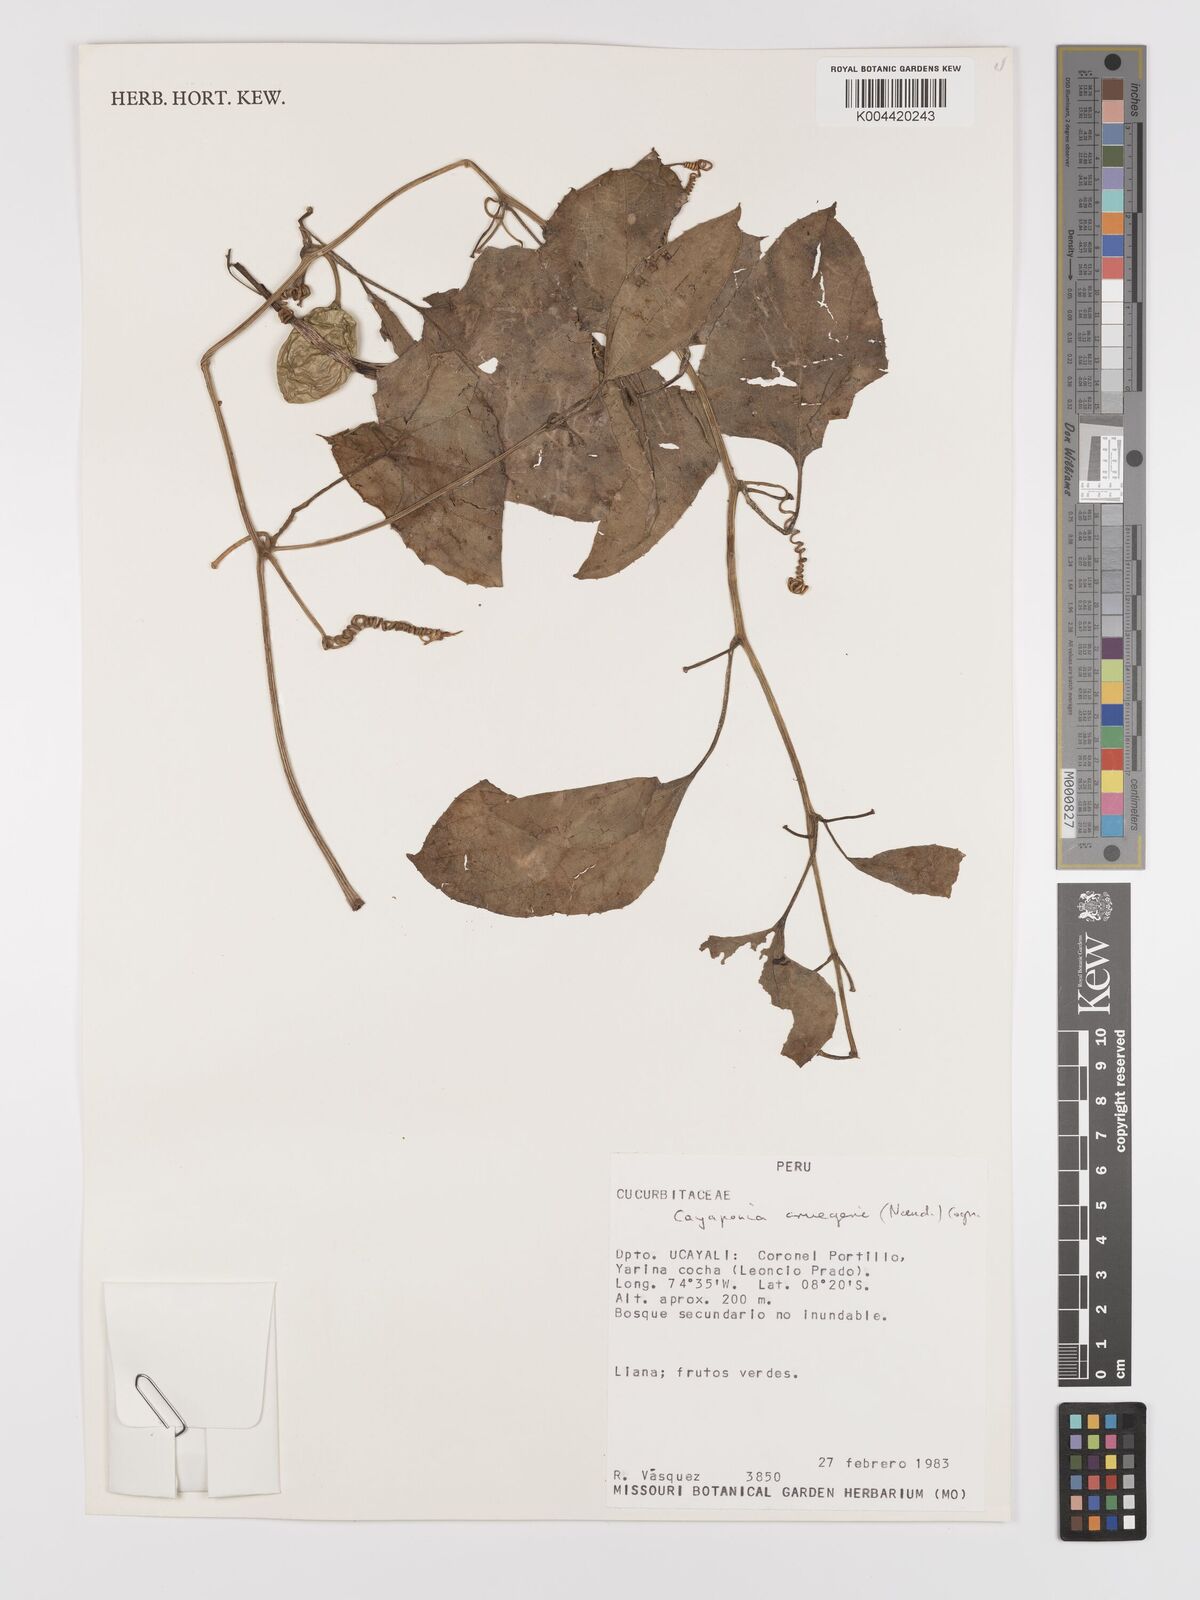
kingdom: Plantae
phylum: Tracheophyta
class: Magnoliopsida
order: Cucurbitales
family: Cucurbitaceae
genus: Cayaponia
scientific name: Cayaponia cruegeri
